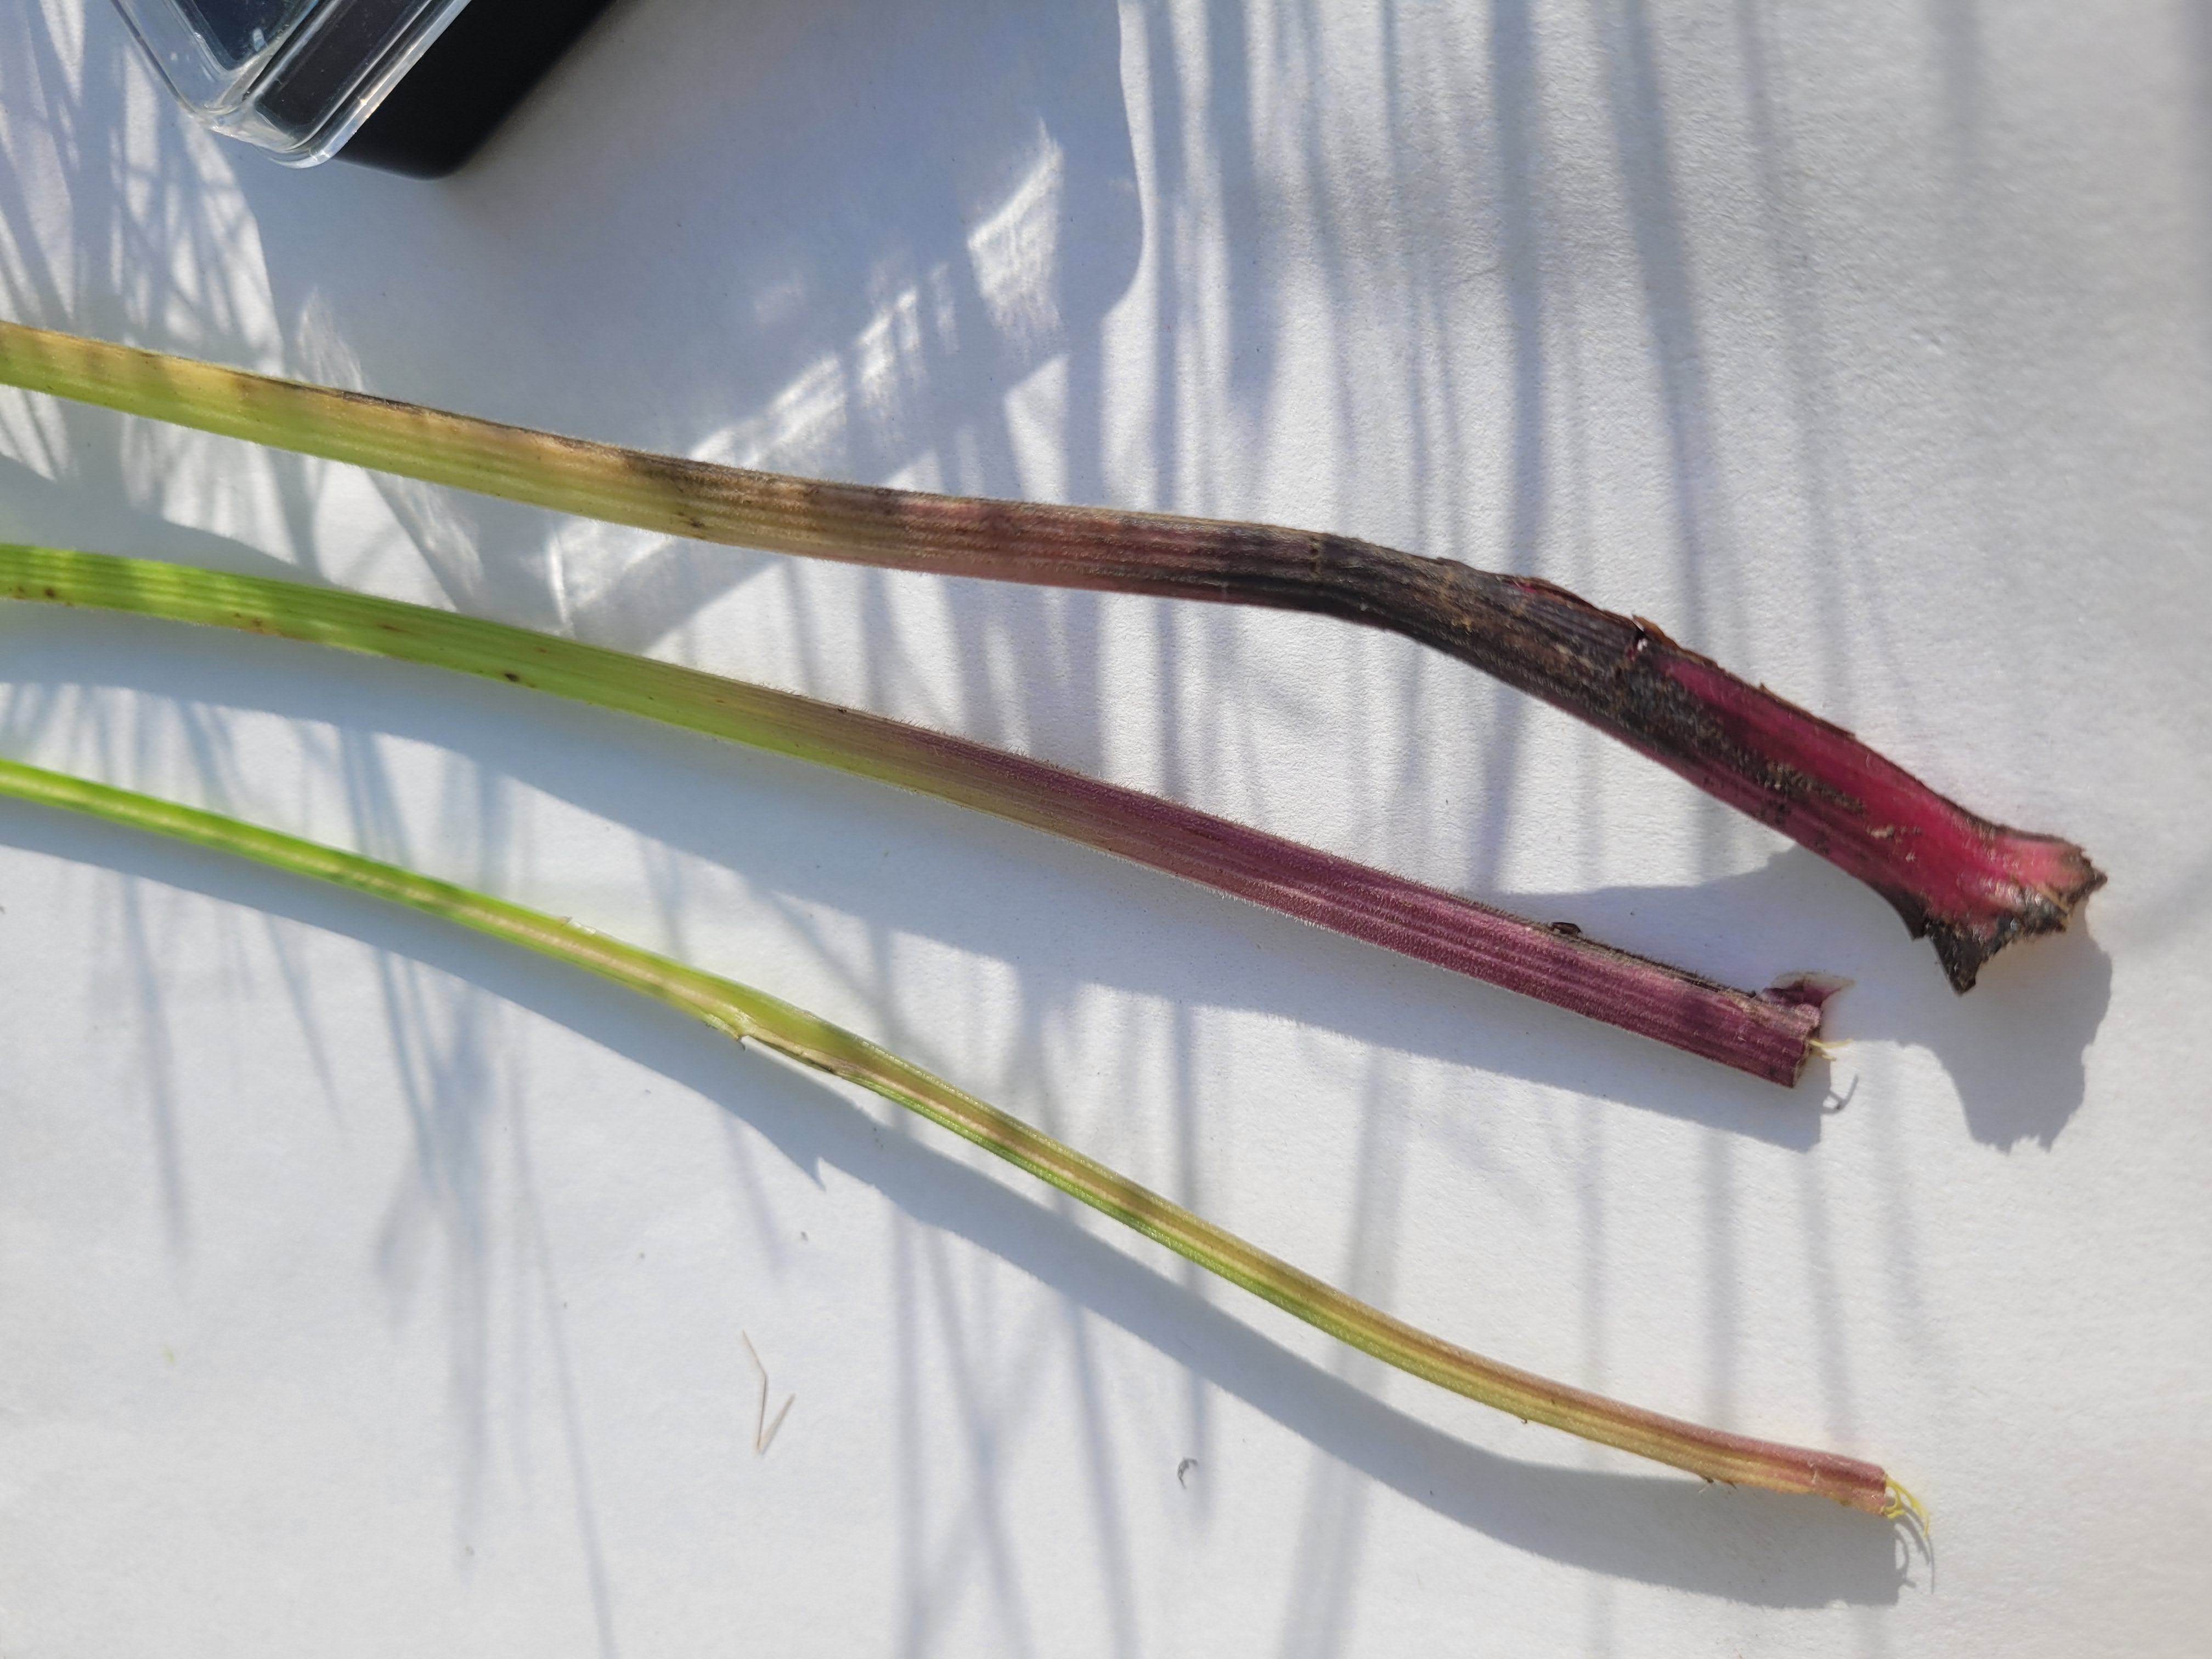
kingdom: Plantae
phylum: Tracheophyta
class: Magnoliopsida
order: Apiales
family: Apiaceae
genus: Anthriscus
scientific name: Anthriscus sylvestris
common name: Vild kørvel
